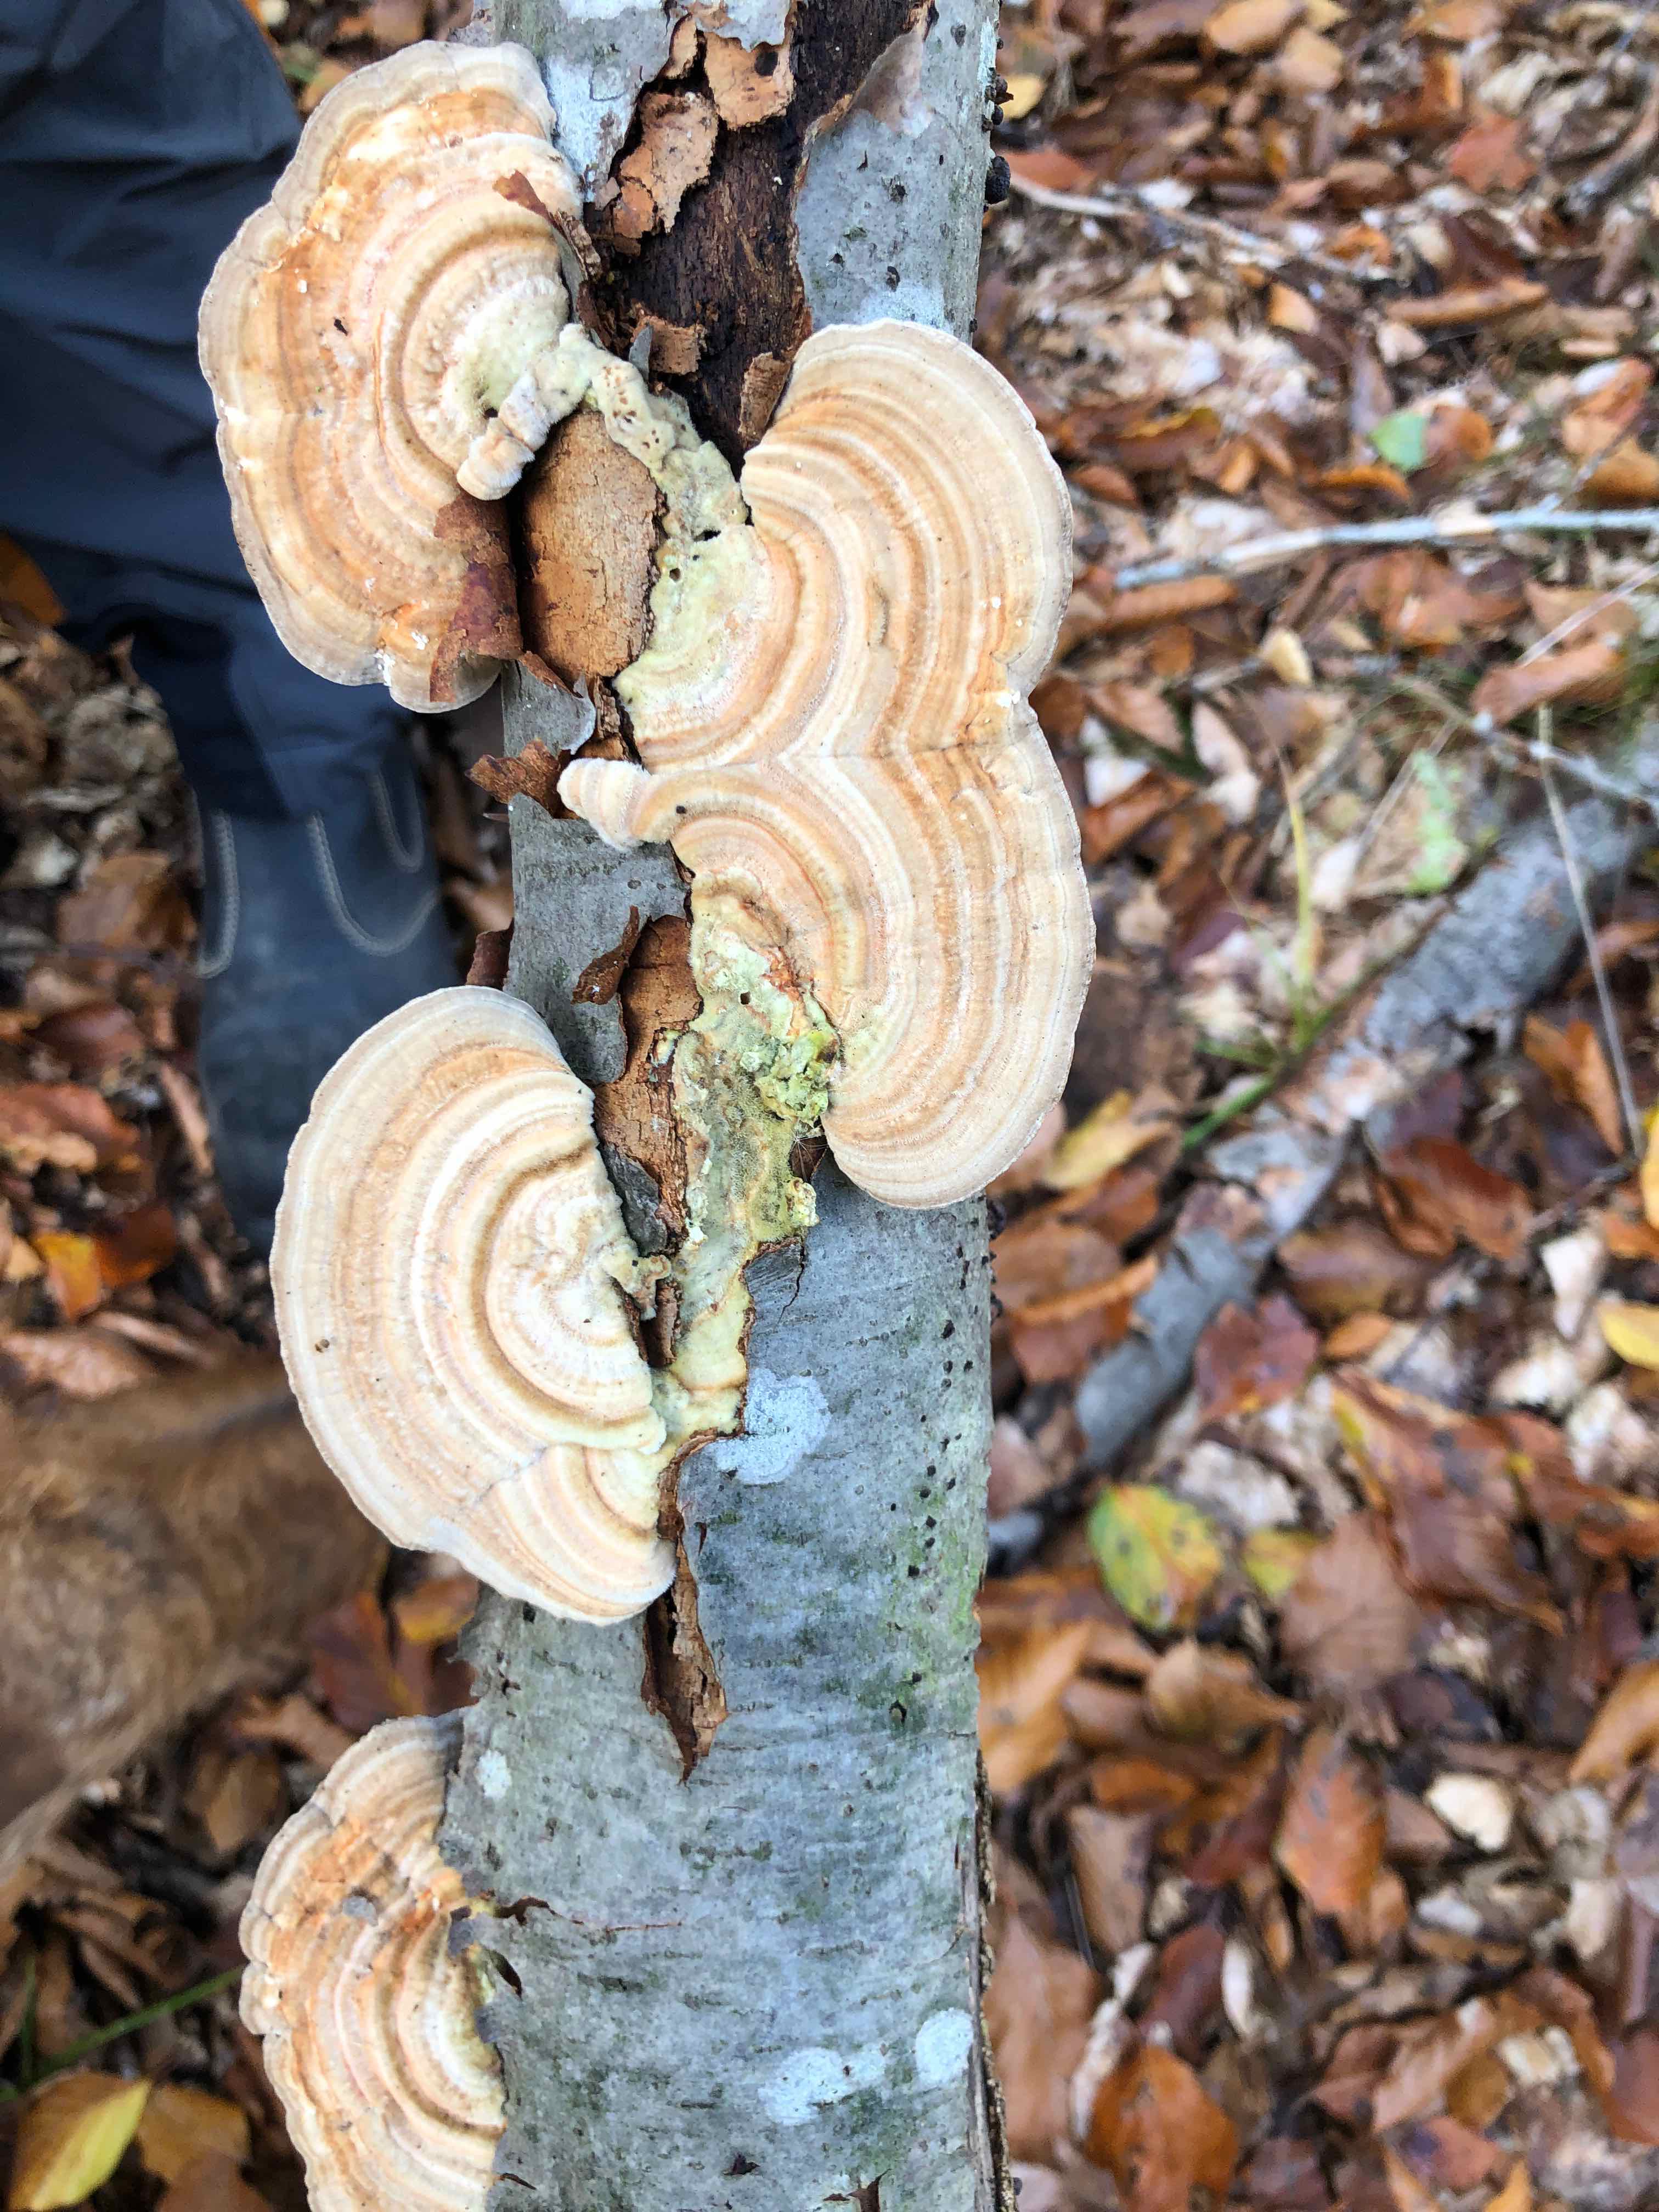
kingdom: Fungi
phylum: Basidiomycota
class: Agaricomycetes
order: Polyporales
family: Polyporaceae
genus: Lenzites
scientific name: Lenzites betulinus
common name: birke-læderporesvamp
